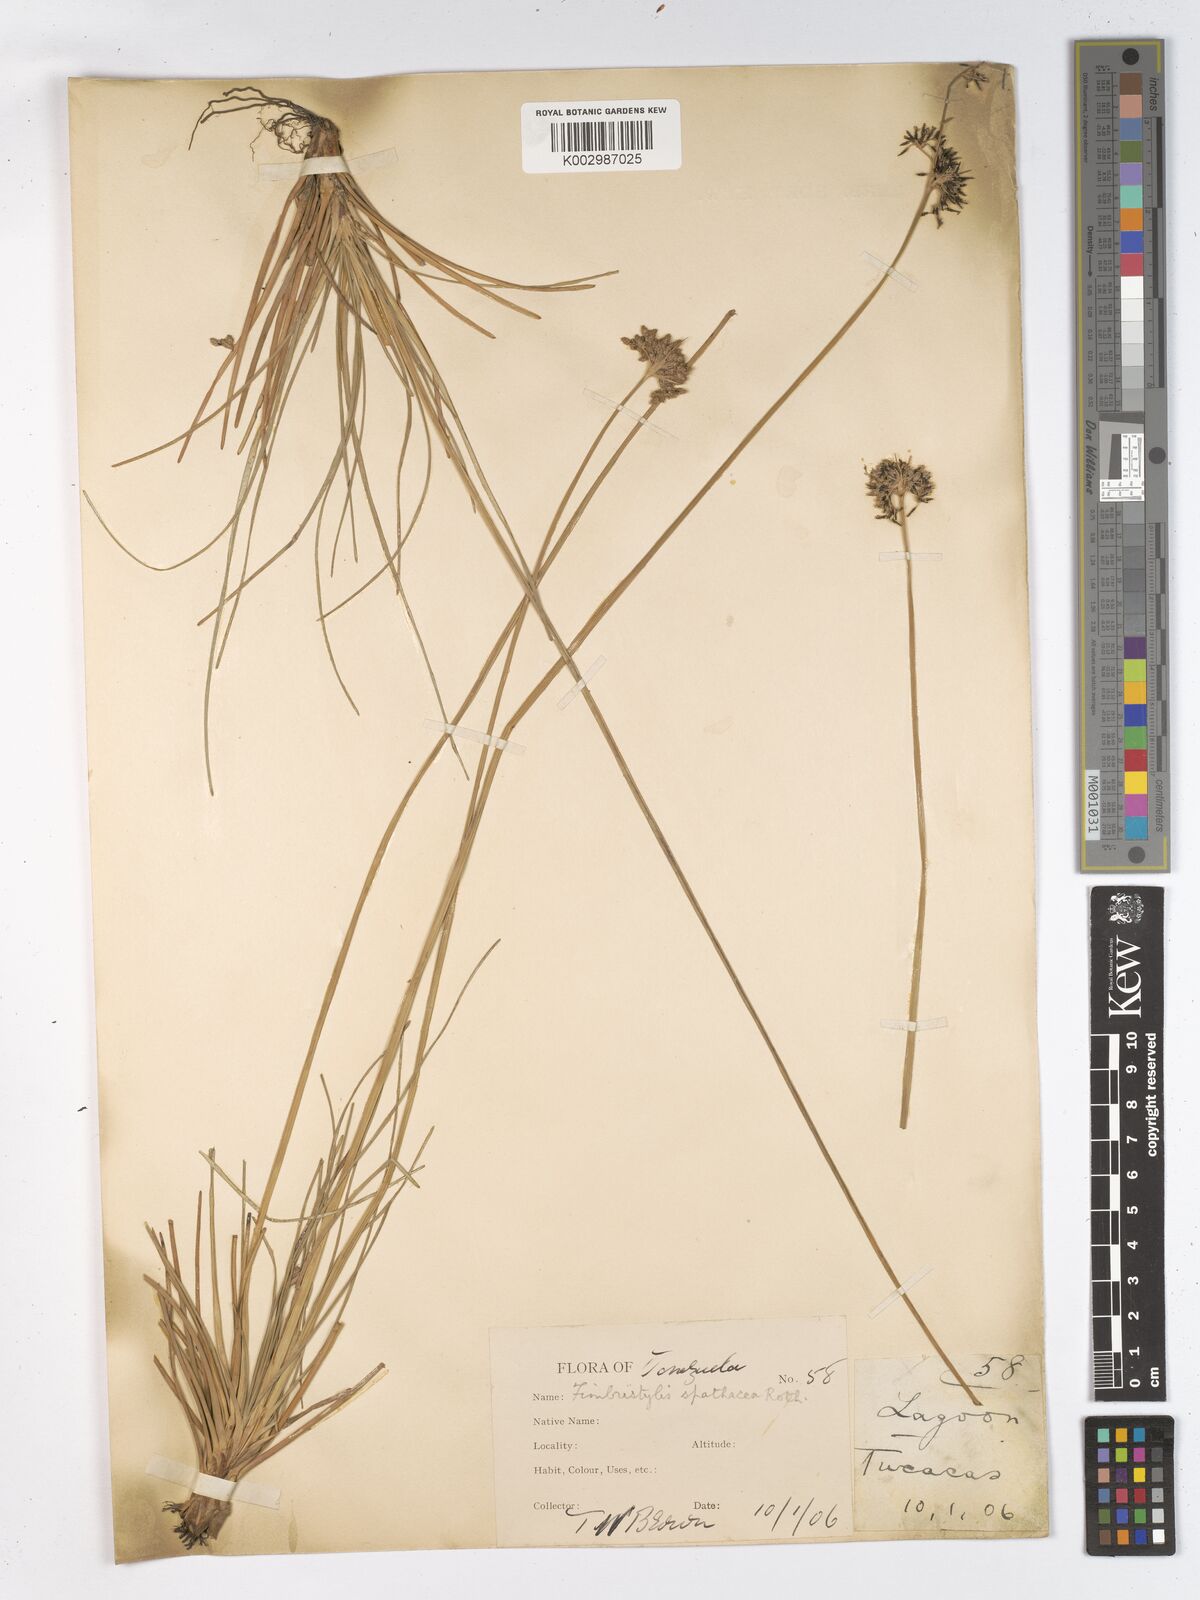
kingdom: Plantae
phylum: Tracheophyta
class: Liliopsida
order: Poales
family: Cyperaceae
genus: Fimbristylis
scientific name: Fimbristylis cymosa
